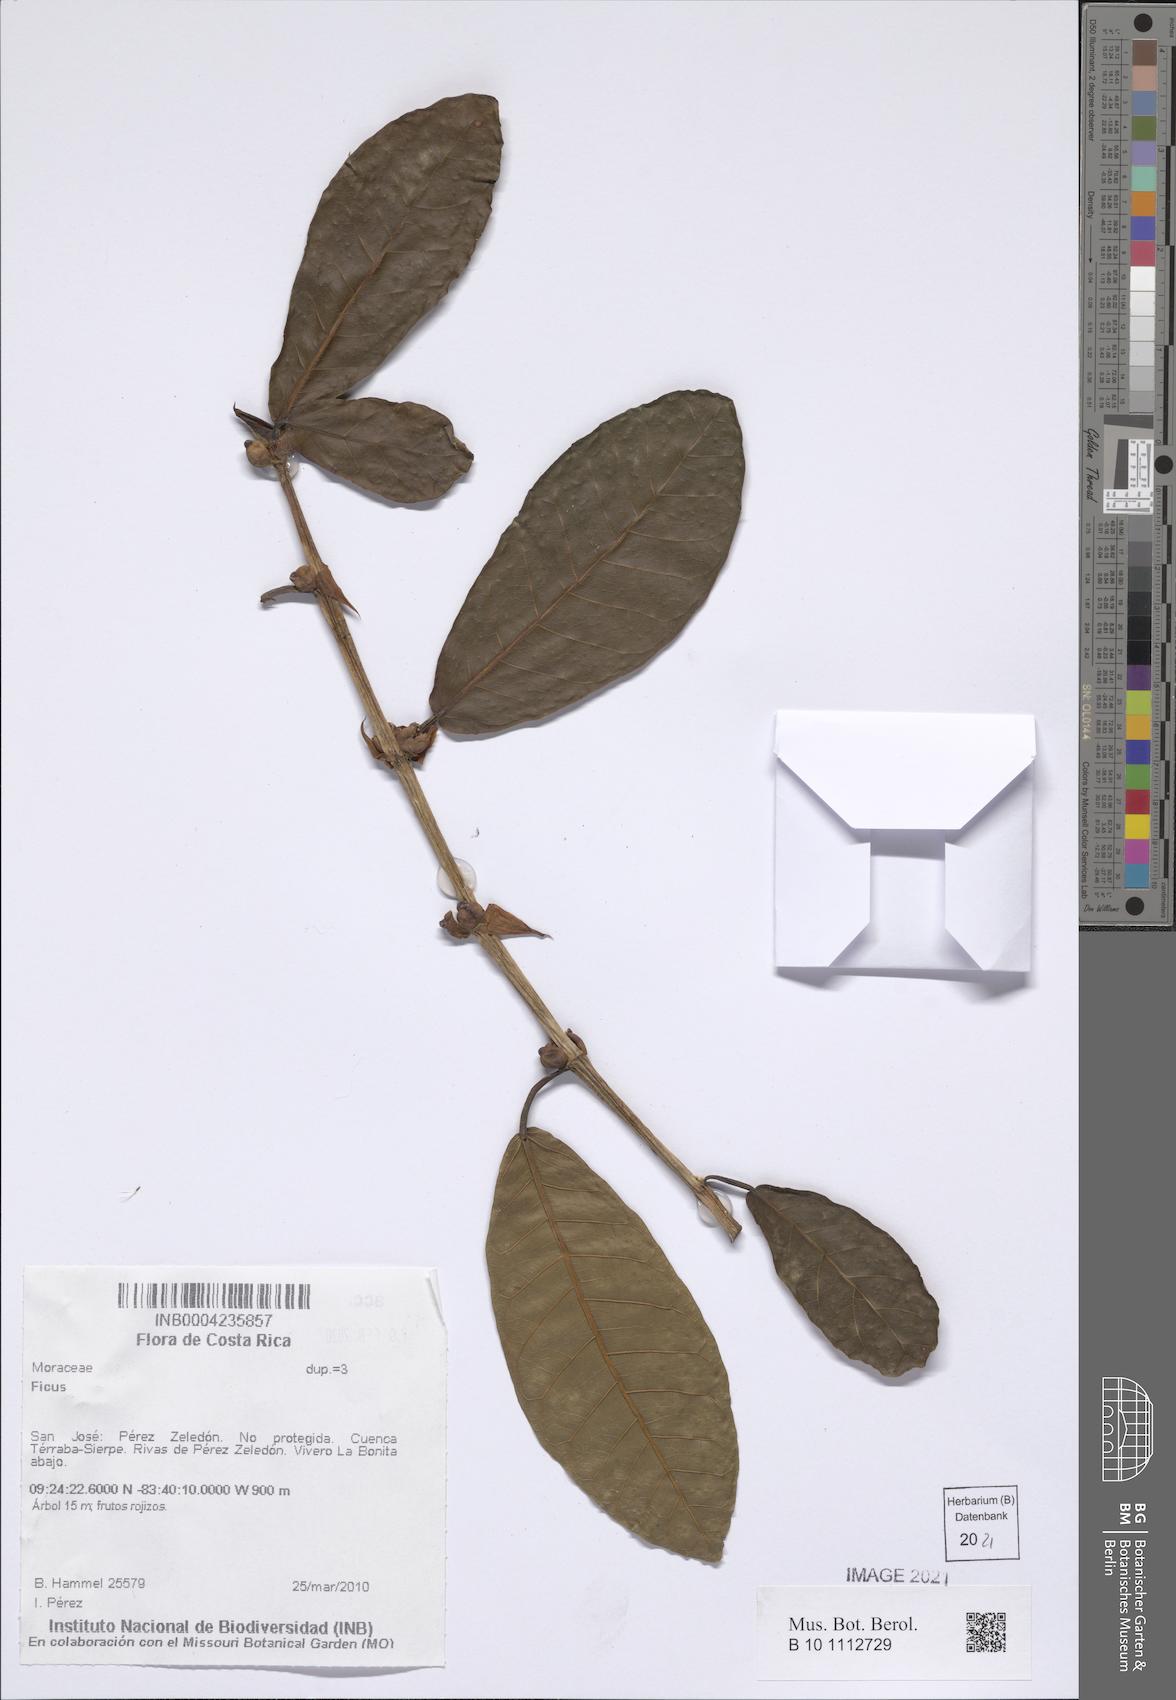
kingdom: Plantae
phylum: Tracheophyta
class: Magnoliopsida
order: Rosales
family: Moraceae
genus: Ficus
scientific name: Ficus
